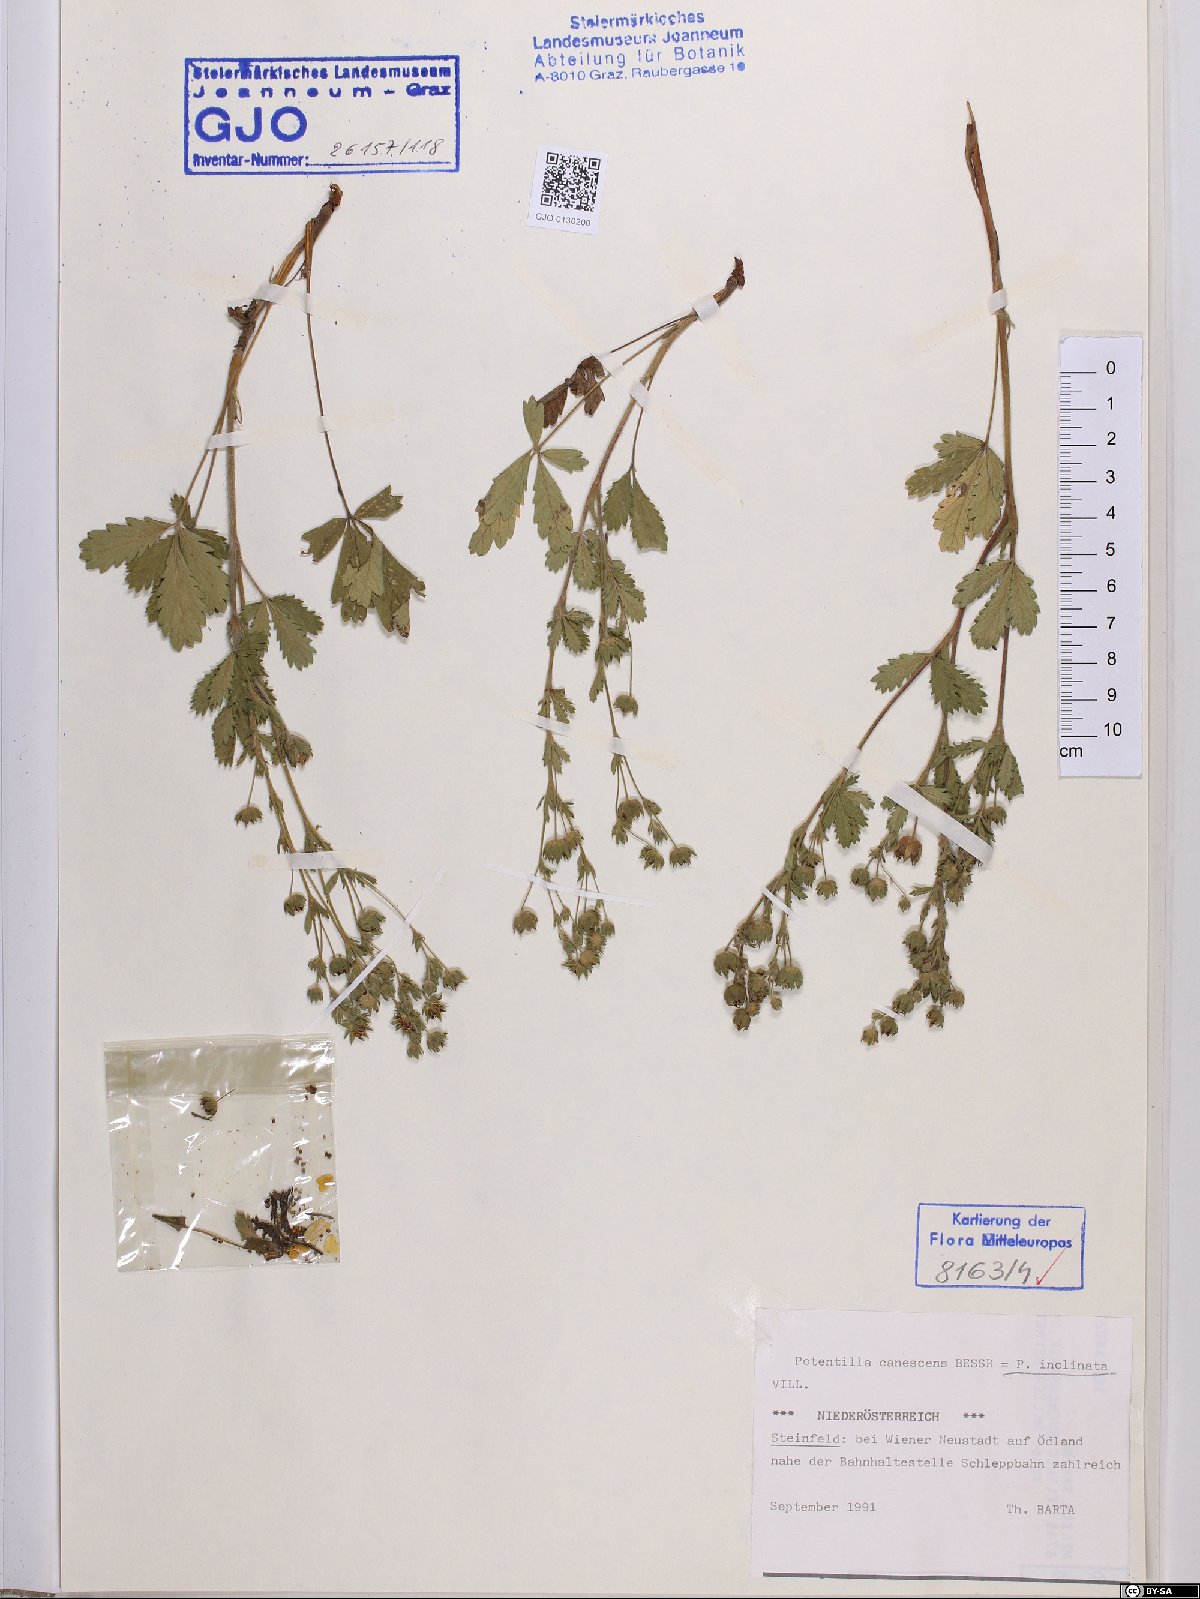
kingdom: Plantae
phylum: Tracheophyta
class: Magnoliopsida
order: Rosales
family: Rosaceae
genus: Potentilla
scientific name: Potentilla inclinata
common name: Grey cinquefoil
